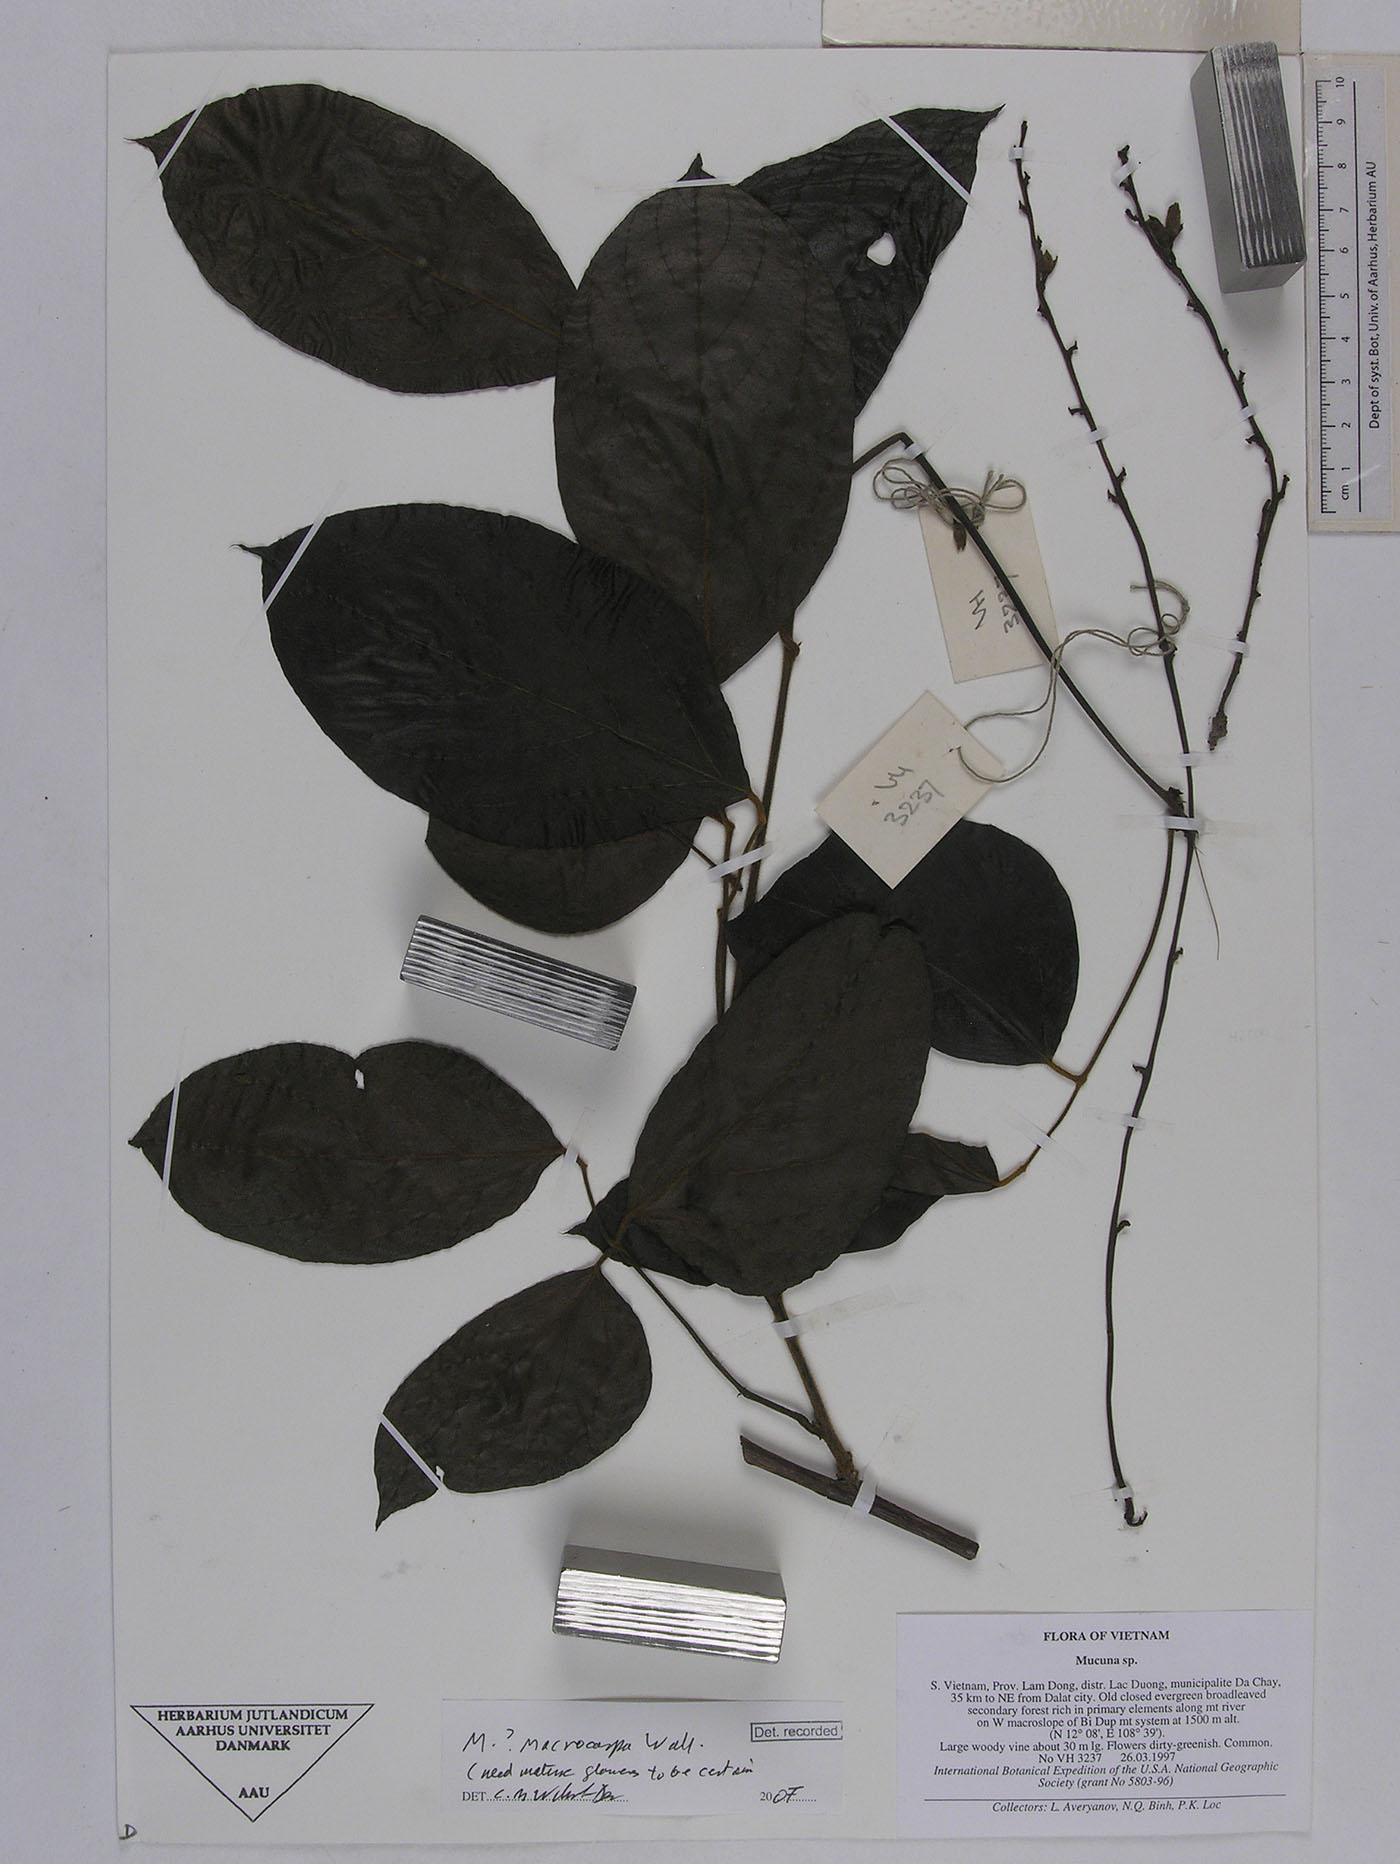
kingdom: Plantae
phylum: Tracheophyta
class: Magnoliopsida
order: Fabales
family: Fabaceae
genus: Mucuna
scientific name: Mucuna macrocarpa
